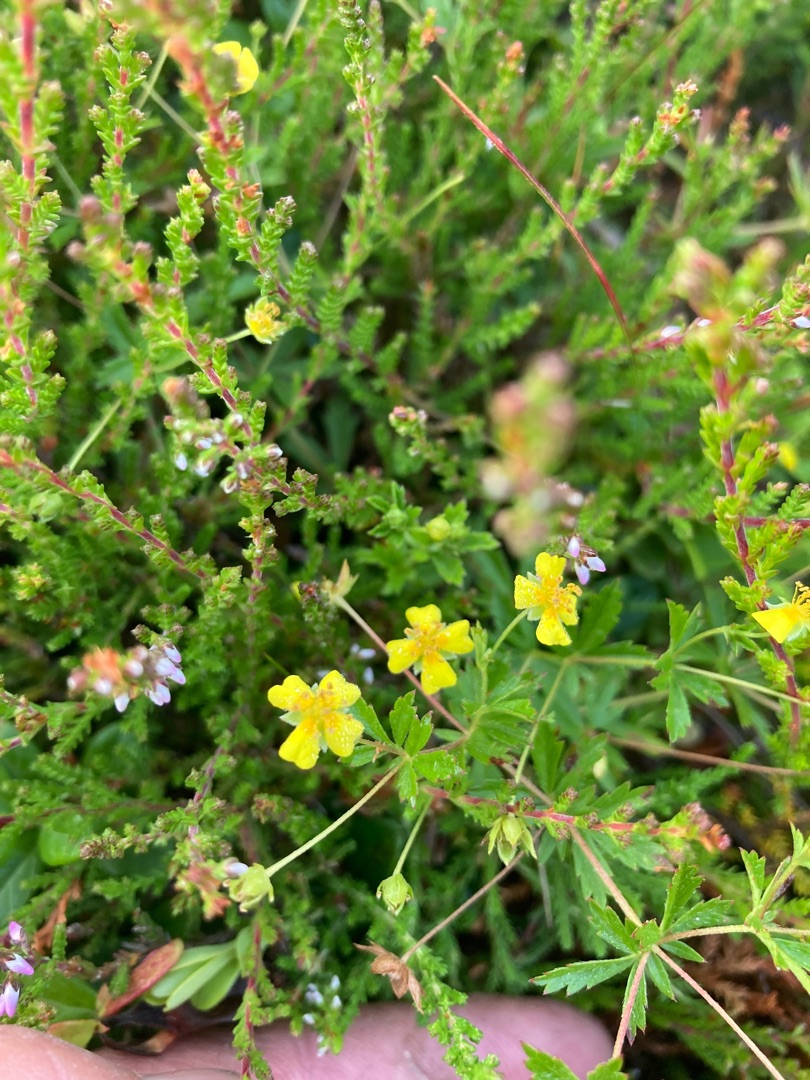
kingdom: Plantae
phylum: Tracheophyta
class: Magnoliopsida
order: Rosales
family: Rosaceae
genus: Potentilla
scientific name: Potentilla erecta
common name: Tormentil
